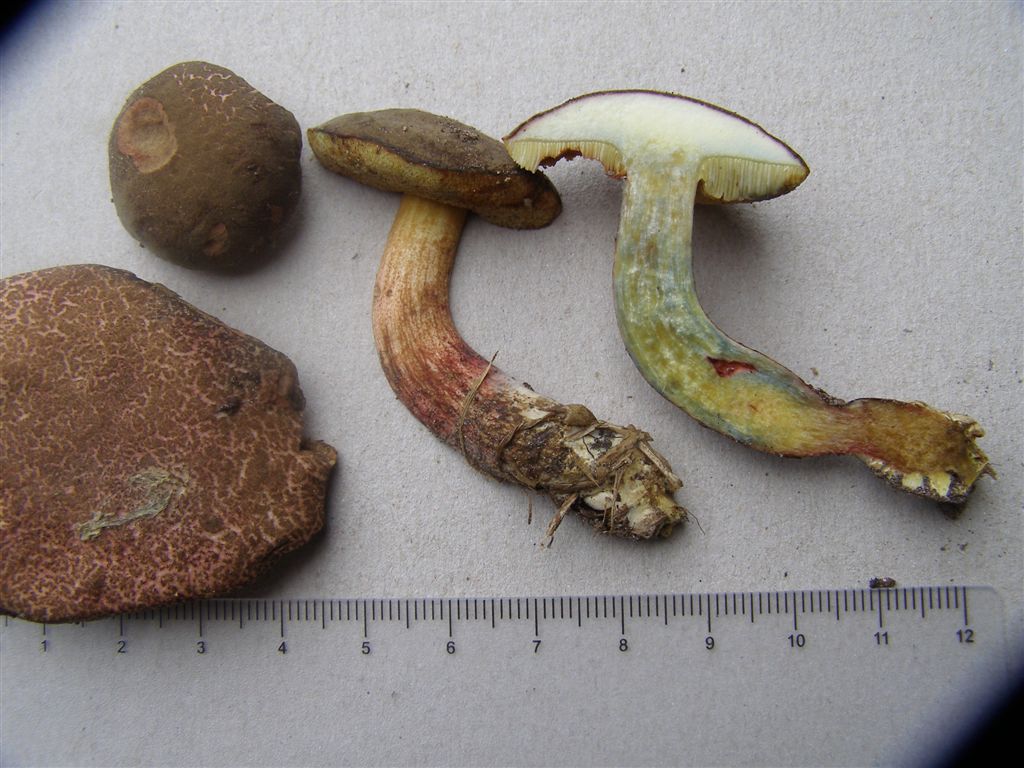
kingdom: Fungi
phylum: Basidiomycota
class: Agaricomycetes
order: Boletales
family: Boletaceae
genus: Xerocomellus
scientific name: Xerocomellus cisalpinus
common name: finsprukken rørhat
